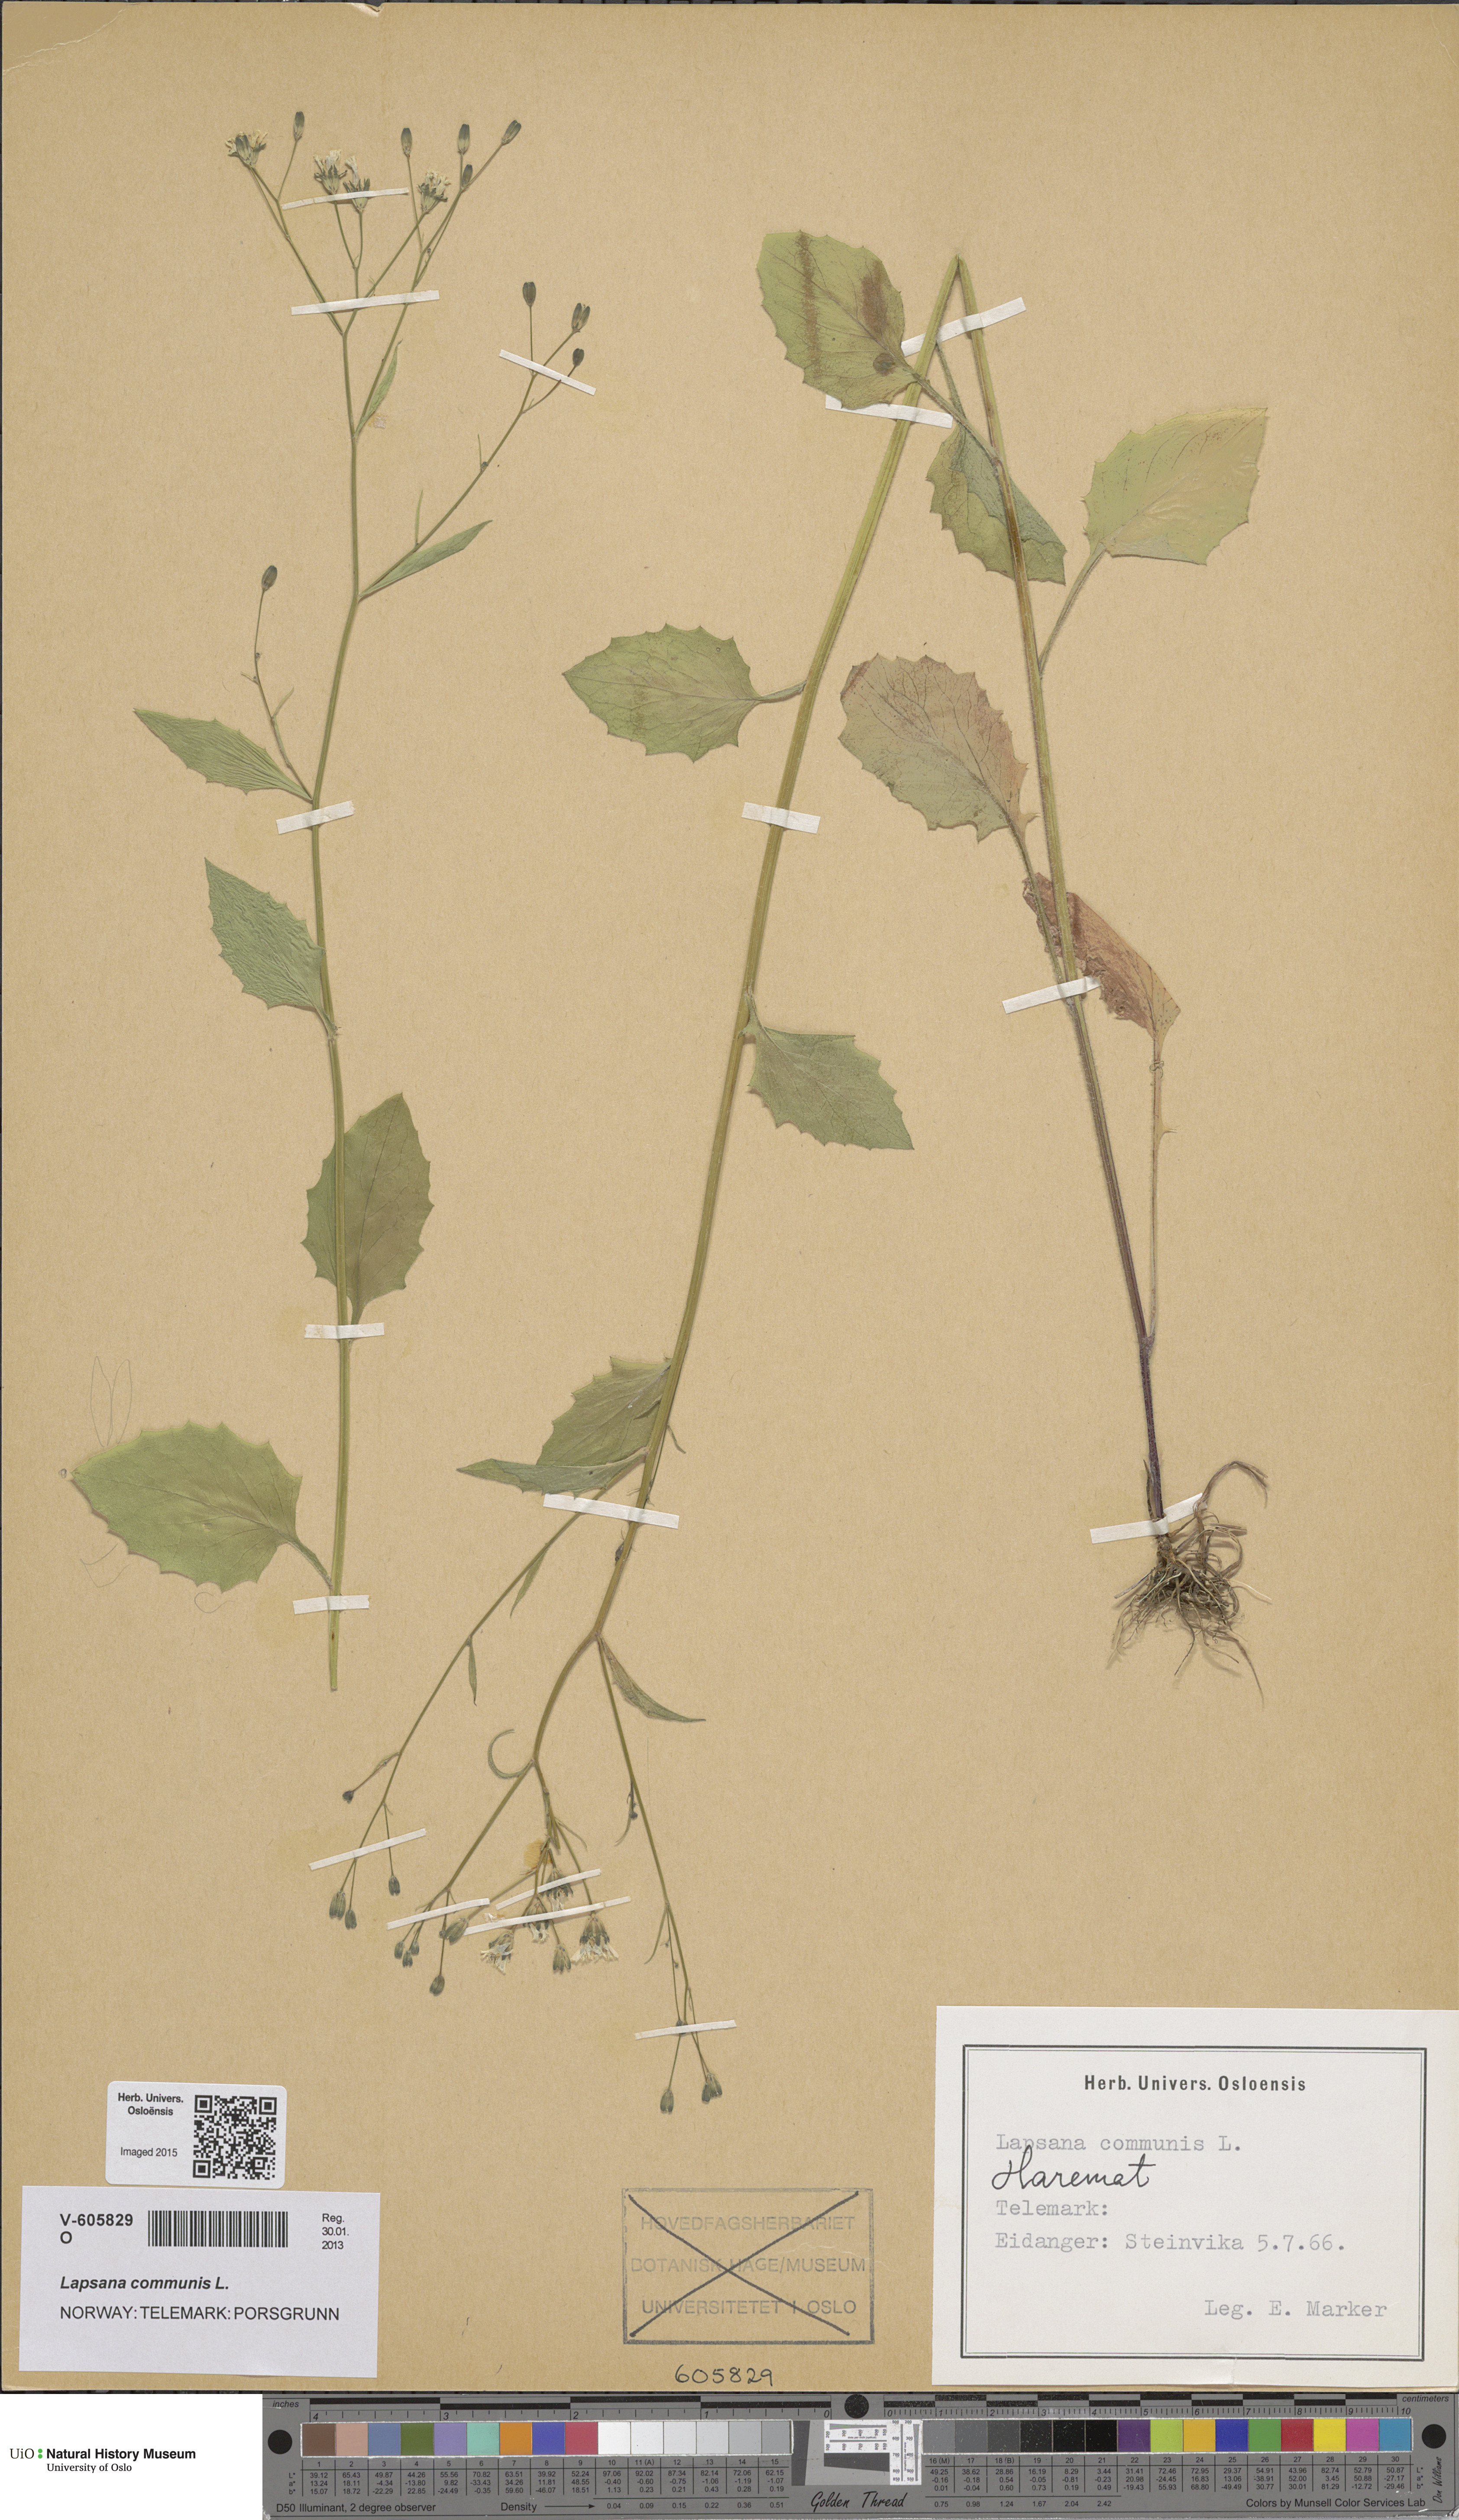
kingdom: Plantae
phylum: Tracheophyta
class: Magnoliopsida
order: Asterales
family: Asteraceae
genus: Lapsana
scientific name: Lapsana communis
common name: Nipplewort
